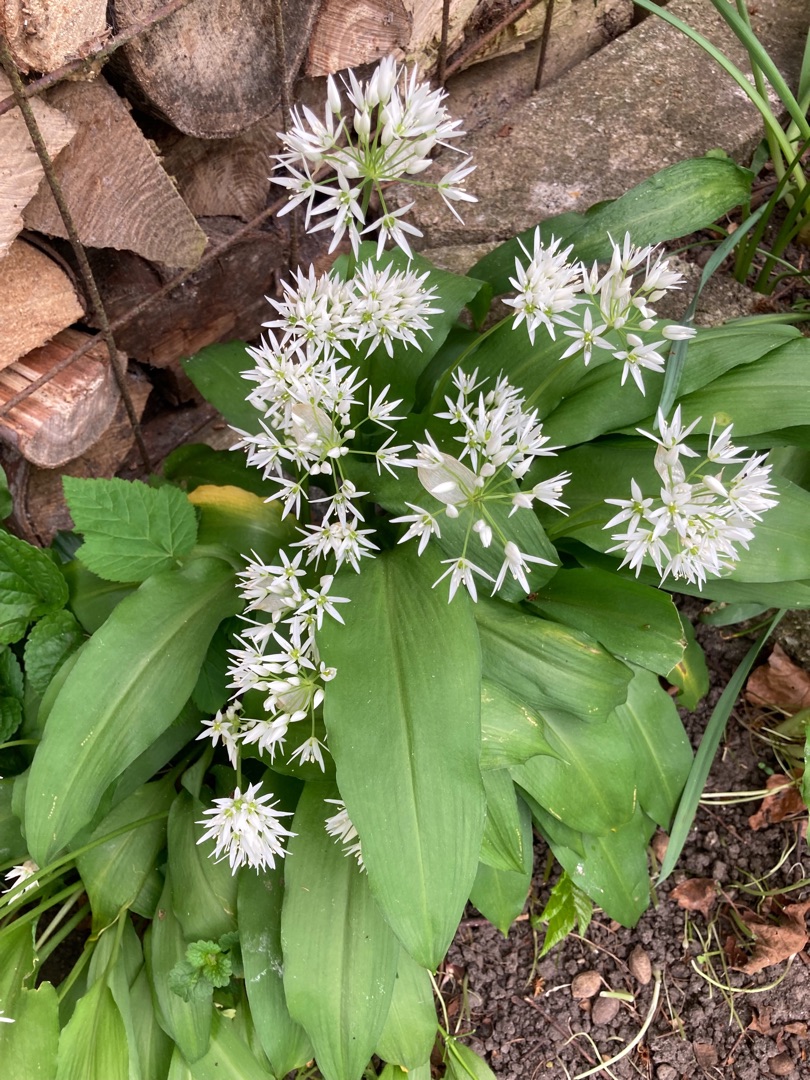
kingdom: Plantae
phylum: Tracheophyta
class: Liliopsida
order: Asparagales
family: Amaryllidaceae
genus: Allium
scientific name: Allium ursinum
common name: Rams-løg
